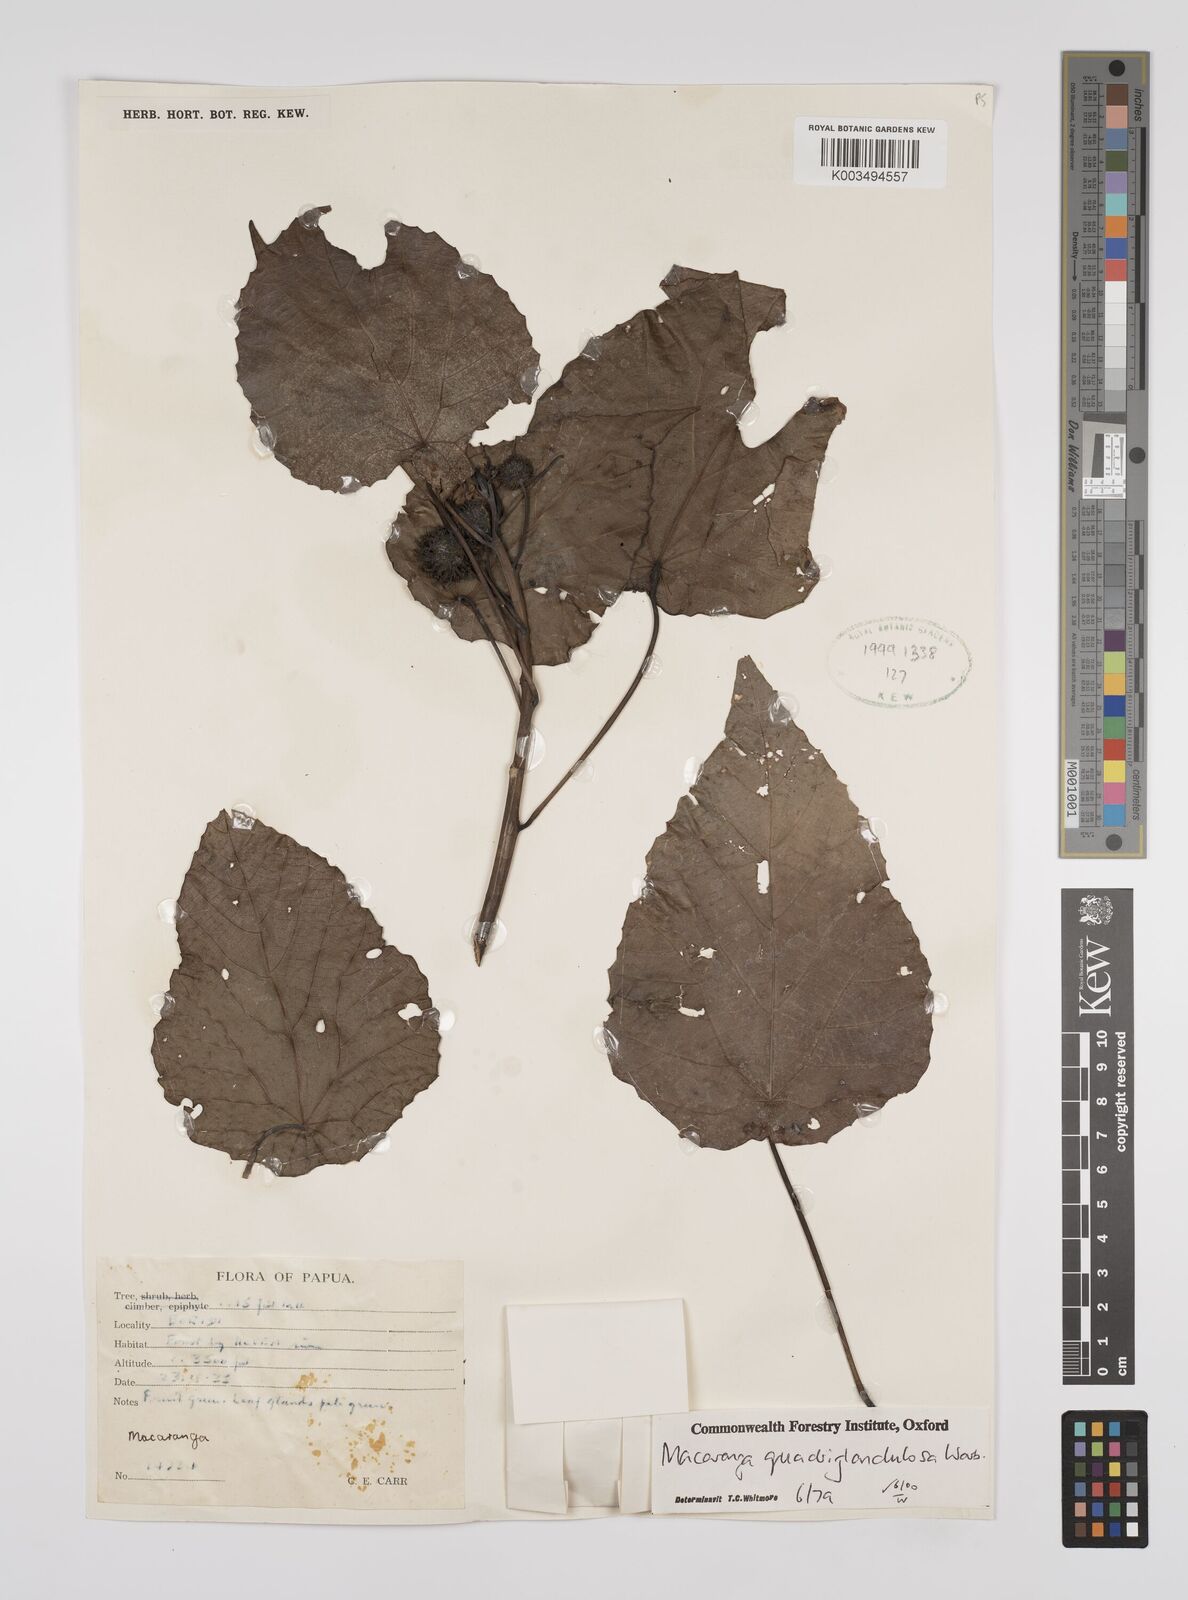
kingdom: Plantae
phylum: Tracheophyta
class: Magnoliopsida
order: Malpighiales
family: Euphorbiaceae
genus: Macaranga
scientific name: Macaranga quadriglandulosa
